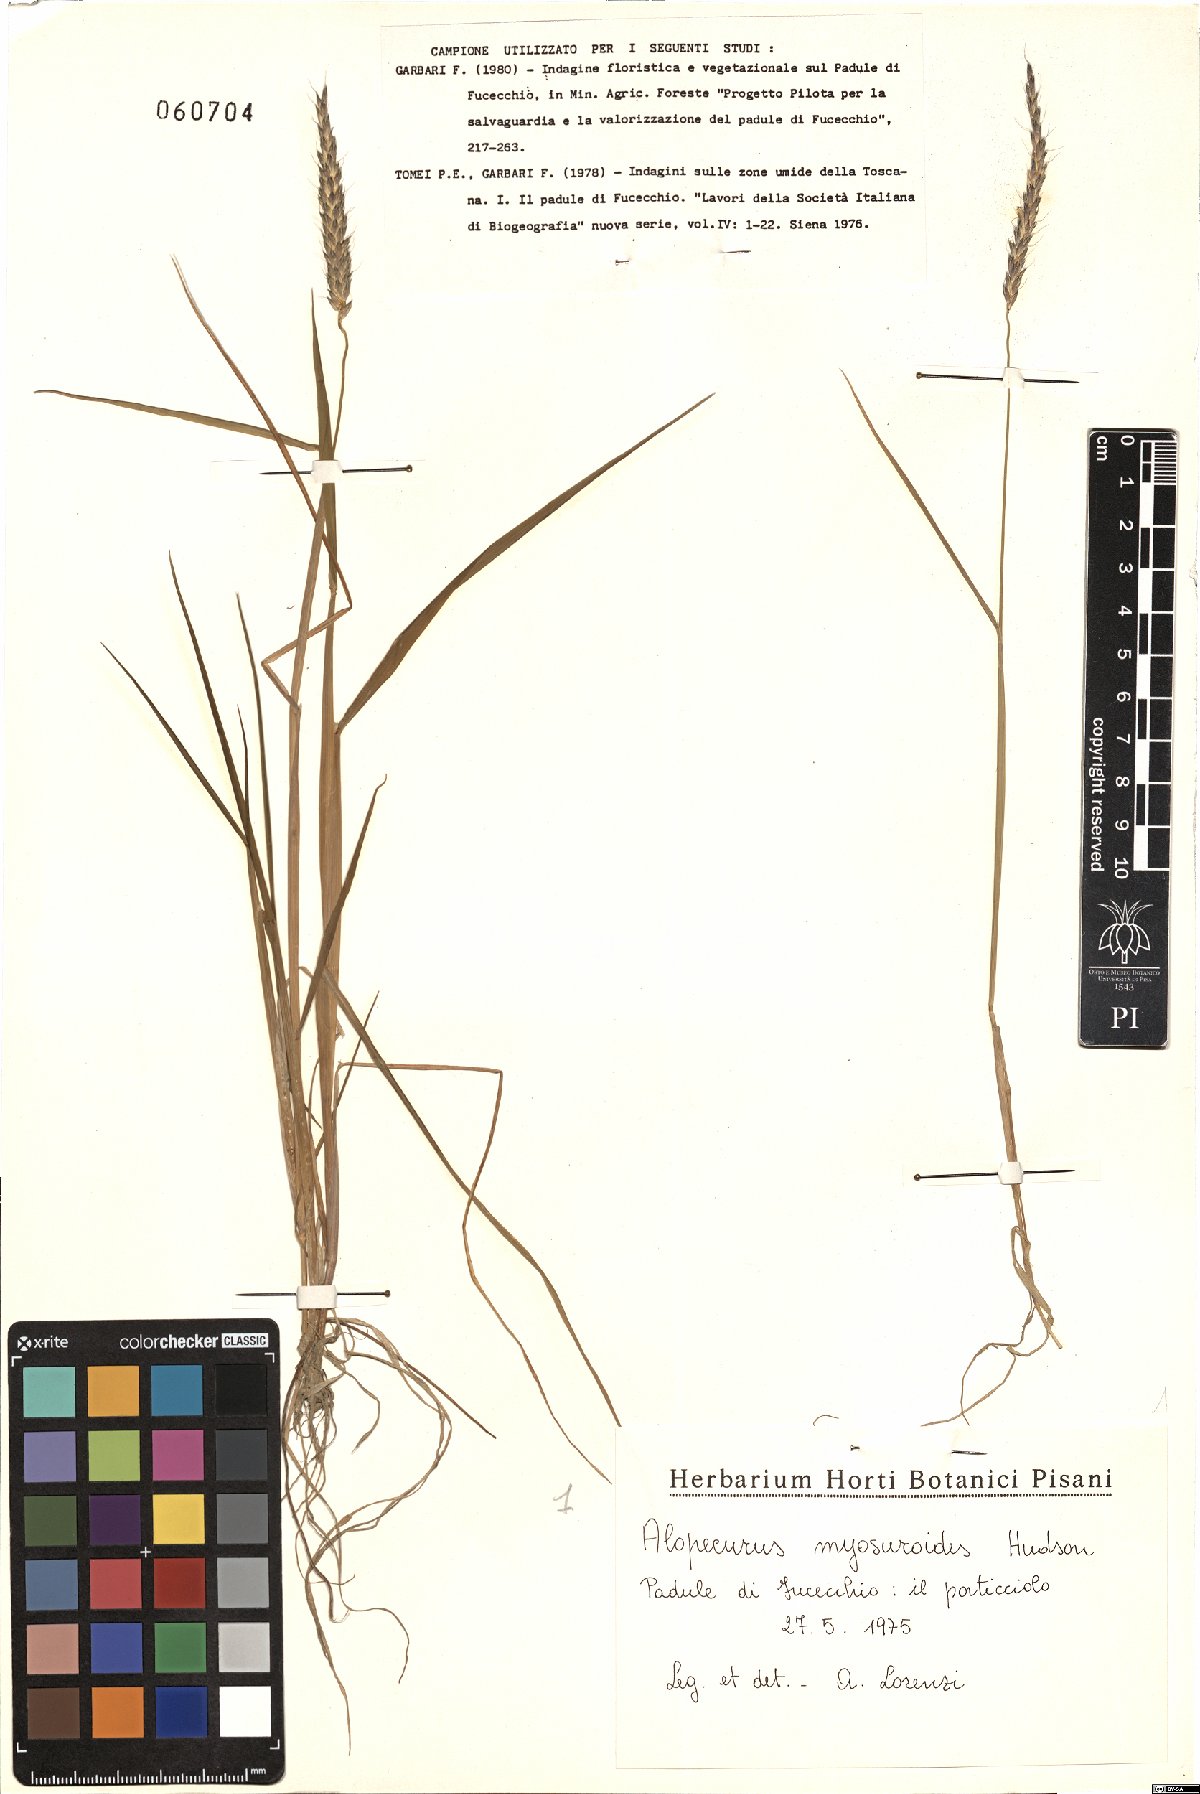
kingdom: Plantae
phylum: Tracheophyta
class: Liliopsida
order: Poales
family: Poaceae
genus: Alopecurus
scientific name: Alopecurus myosuroides
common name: Black-grass
